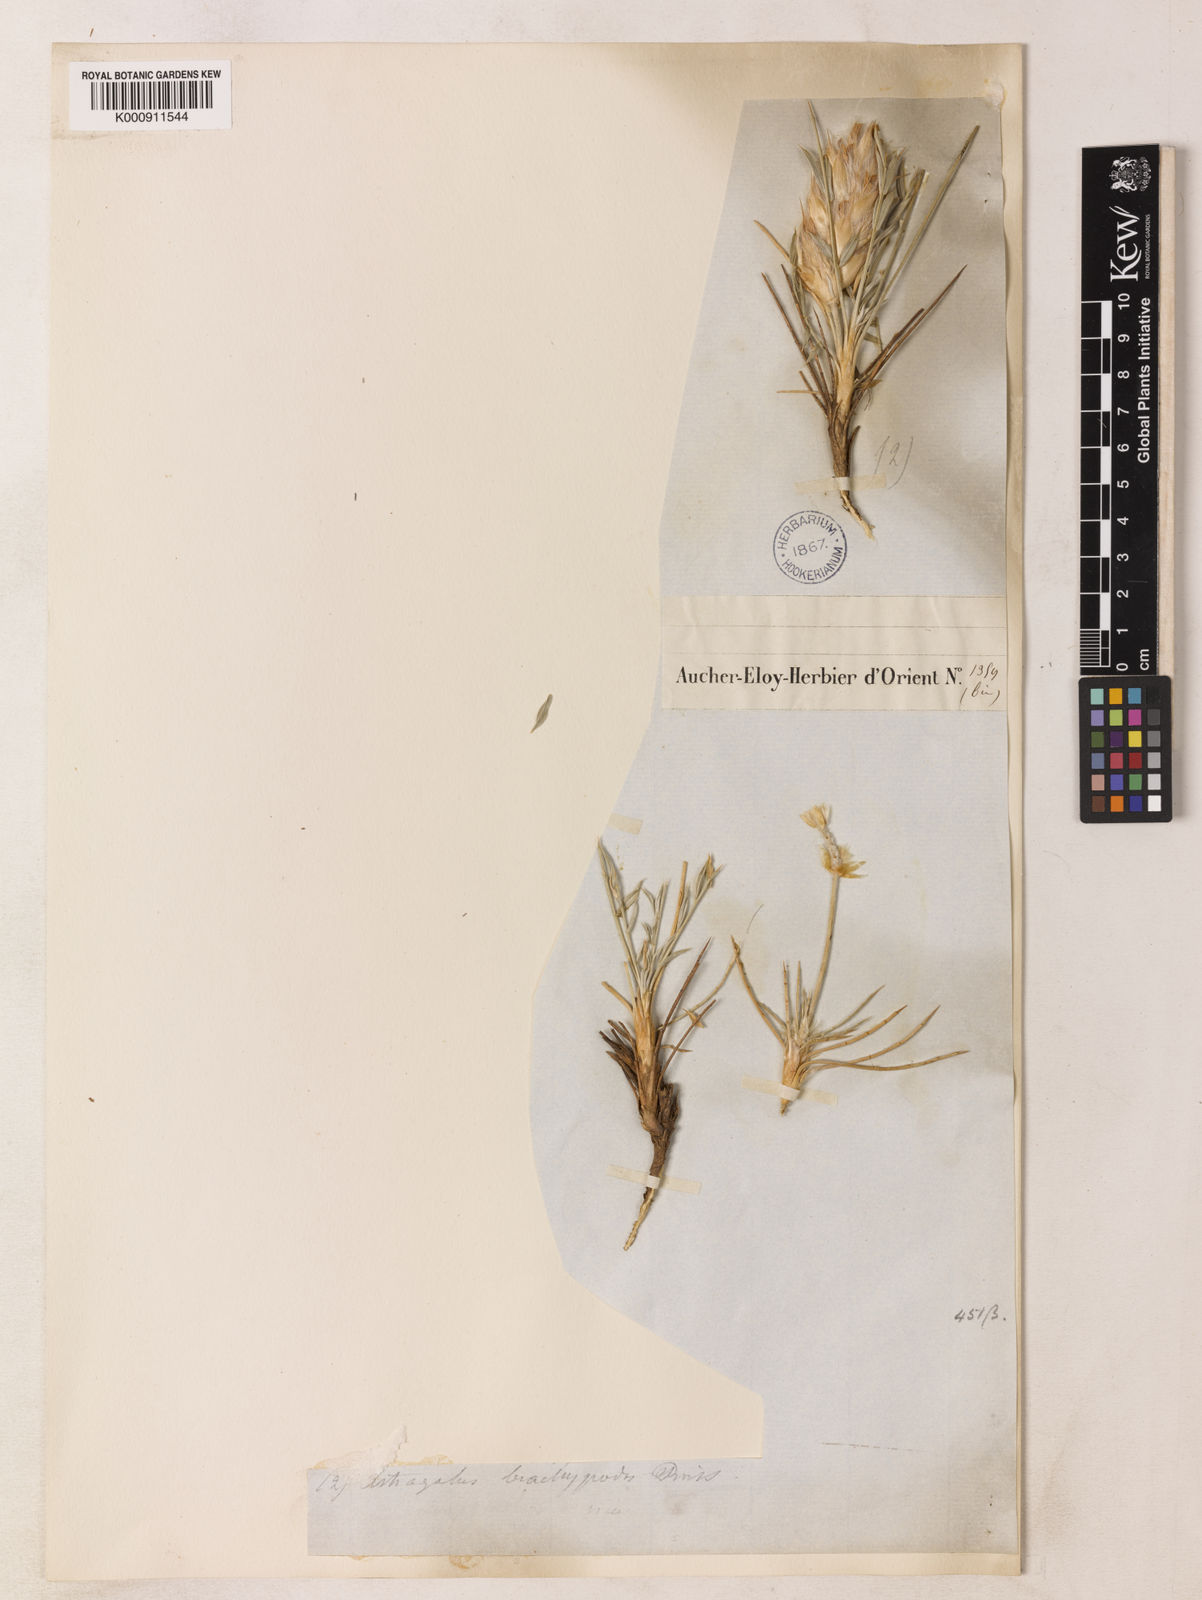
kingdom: Plantae
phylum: Tracheophyta
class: Magnoliopsida
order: Fabales
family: Fabaceae
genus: Astragalus
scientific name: Astragalus uraniolimneus
